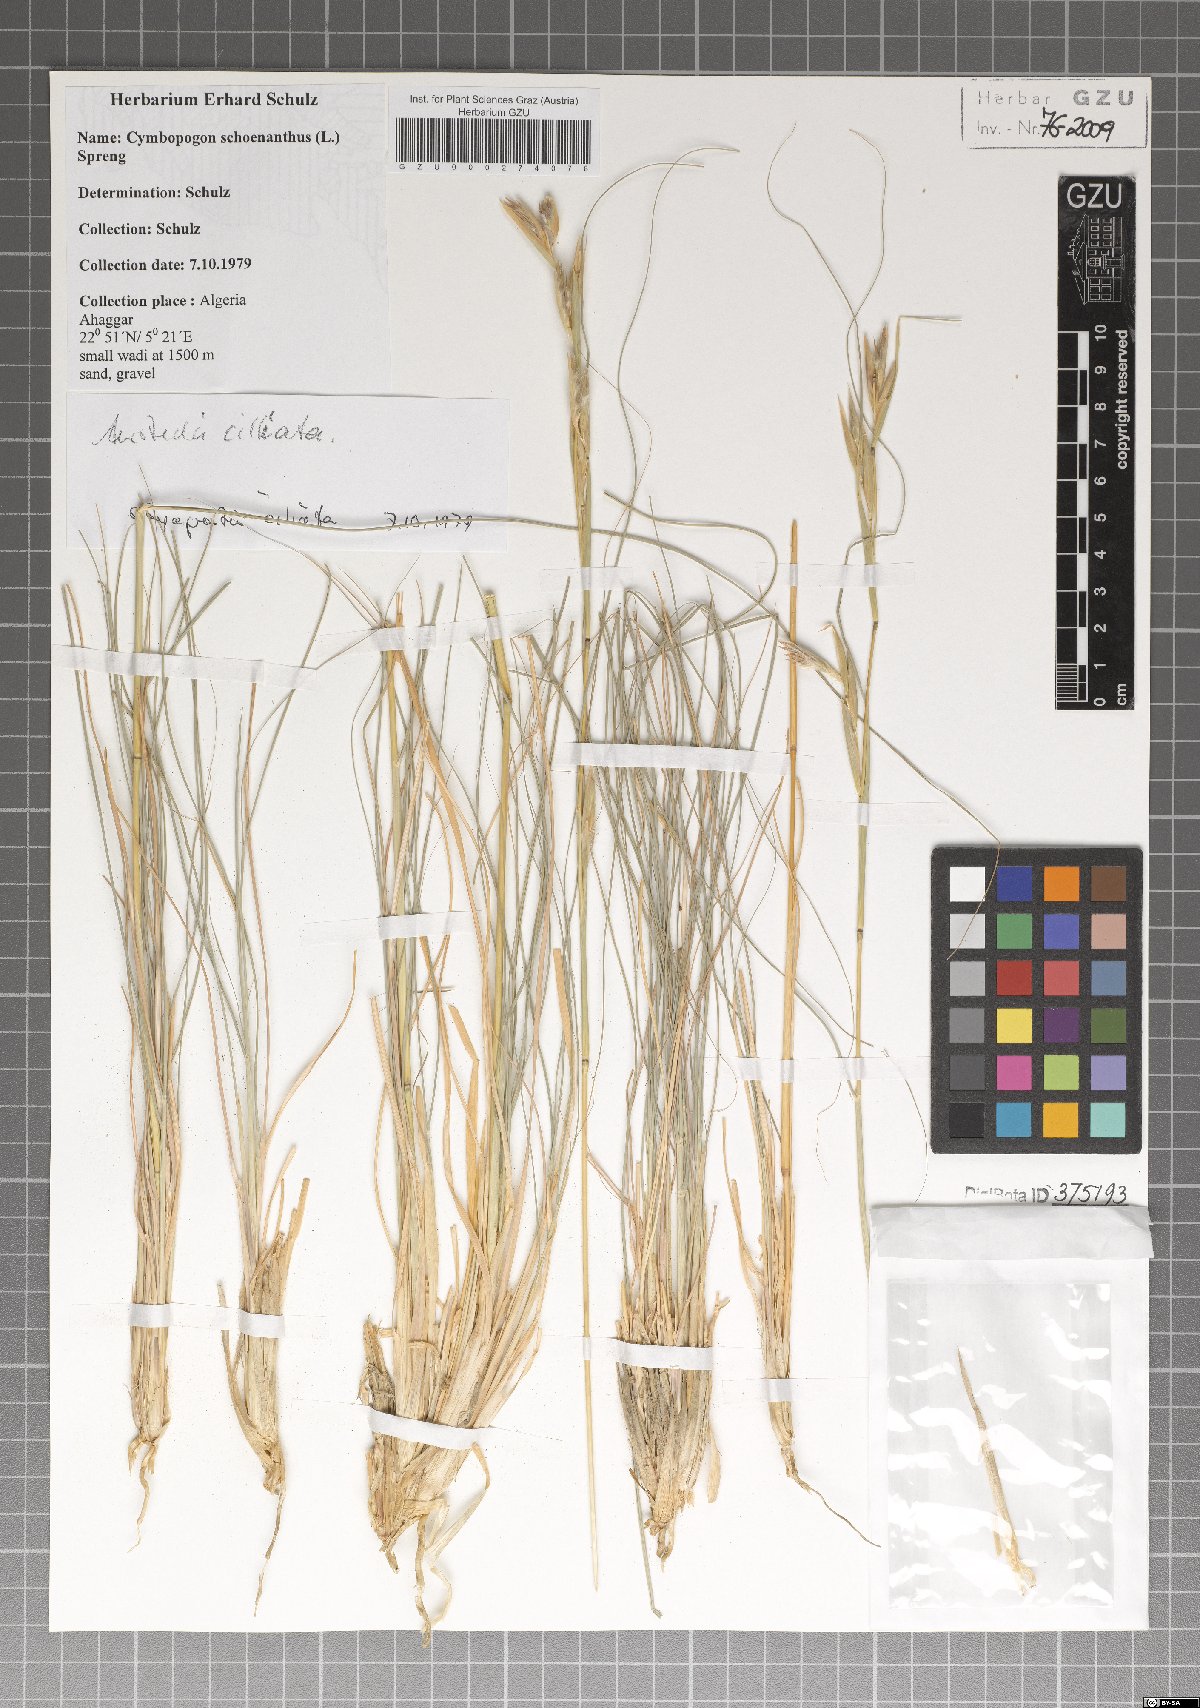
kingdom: Plantae
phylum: Tracheophyta
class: Liliopsida
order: Poales
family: Poaceae
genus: Cymbopogon
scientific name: Cymbopogon schoenanthus
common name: Geranium grass
